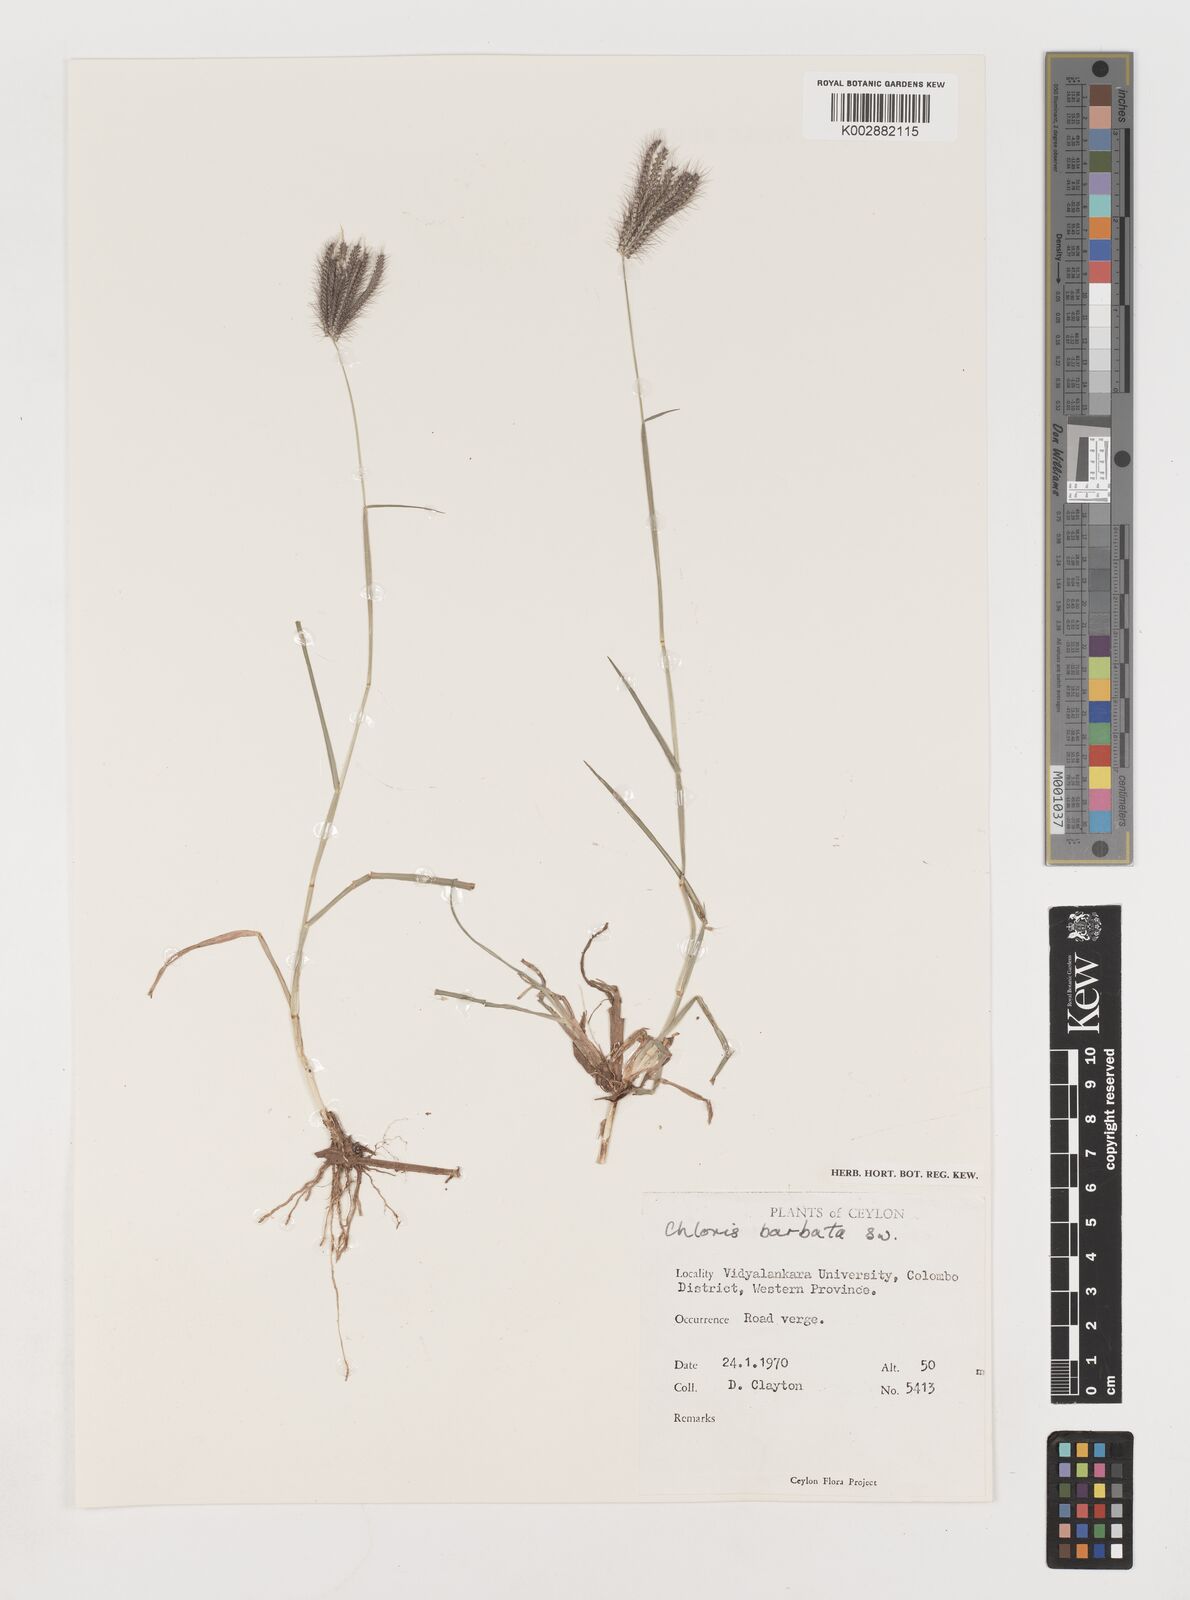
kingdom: Plantae
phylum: Tracheophyta
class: Liliopsida
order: Poales
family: Poaceae
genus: Chloris
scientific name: Chloris barbata
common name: Swollen fingergrass
